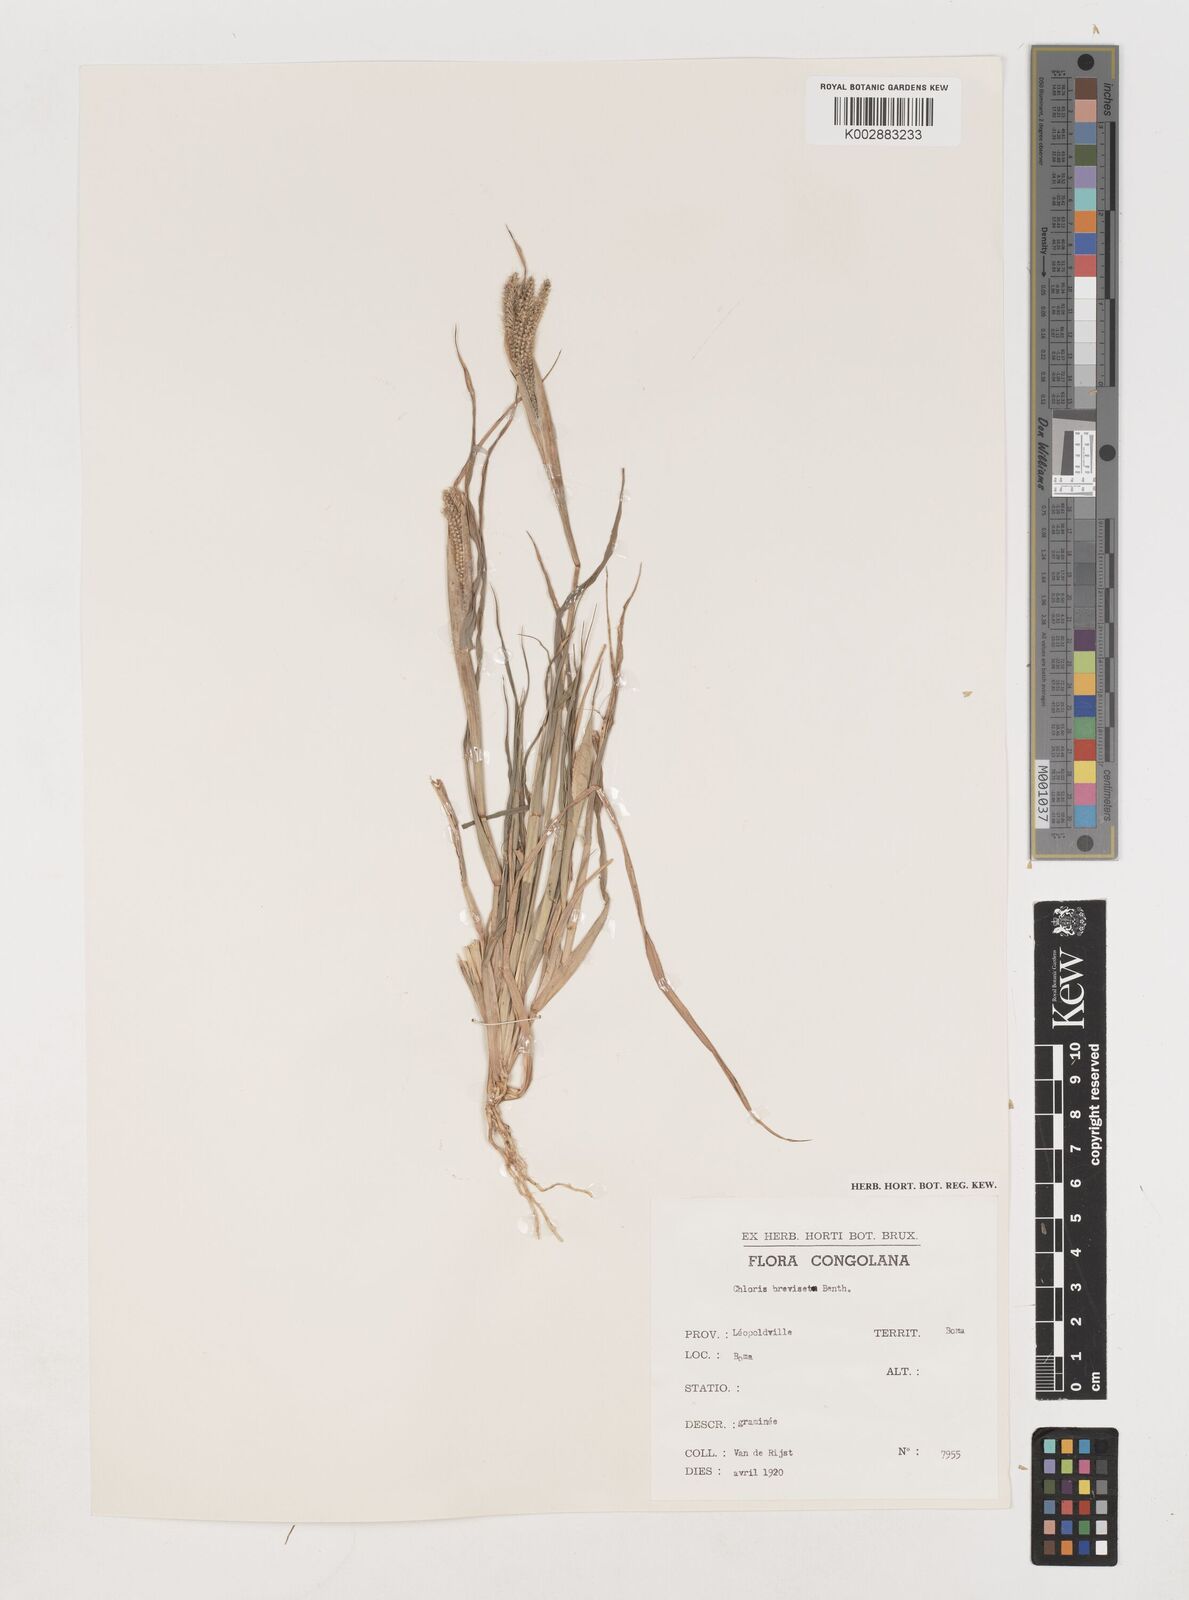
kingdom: Plantae
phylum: Tracheophyta
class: Liliopsida
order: Poales
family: Poaceae
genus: Chloris
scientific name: Chloris pilosa
